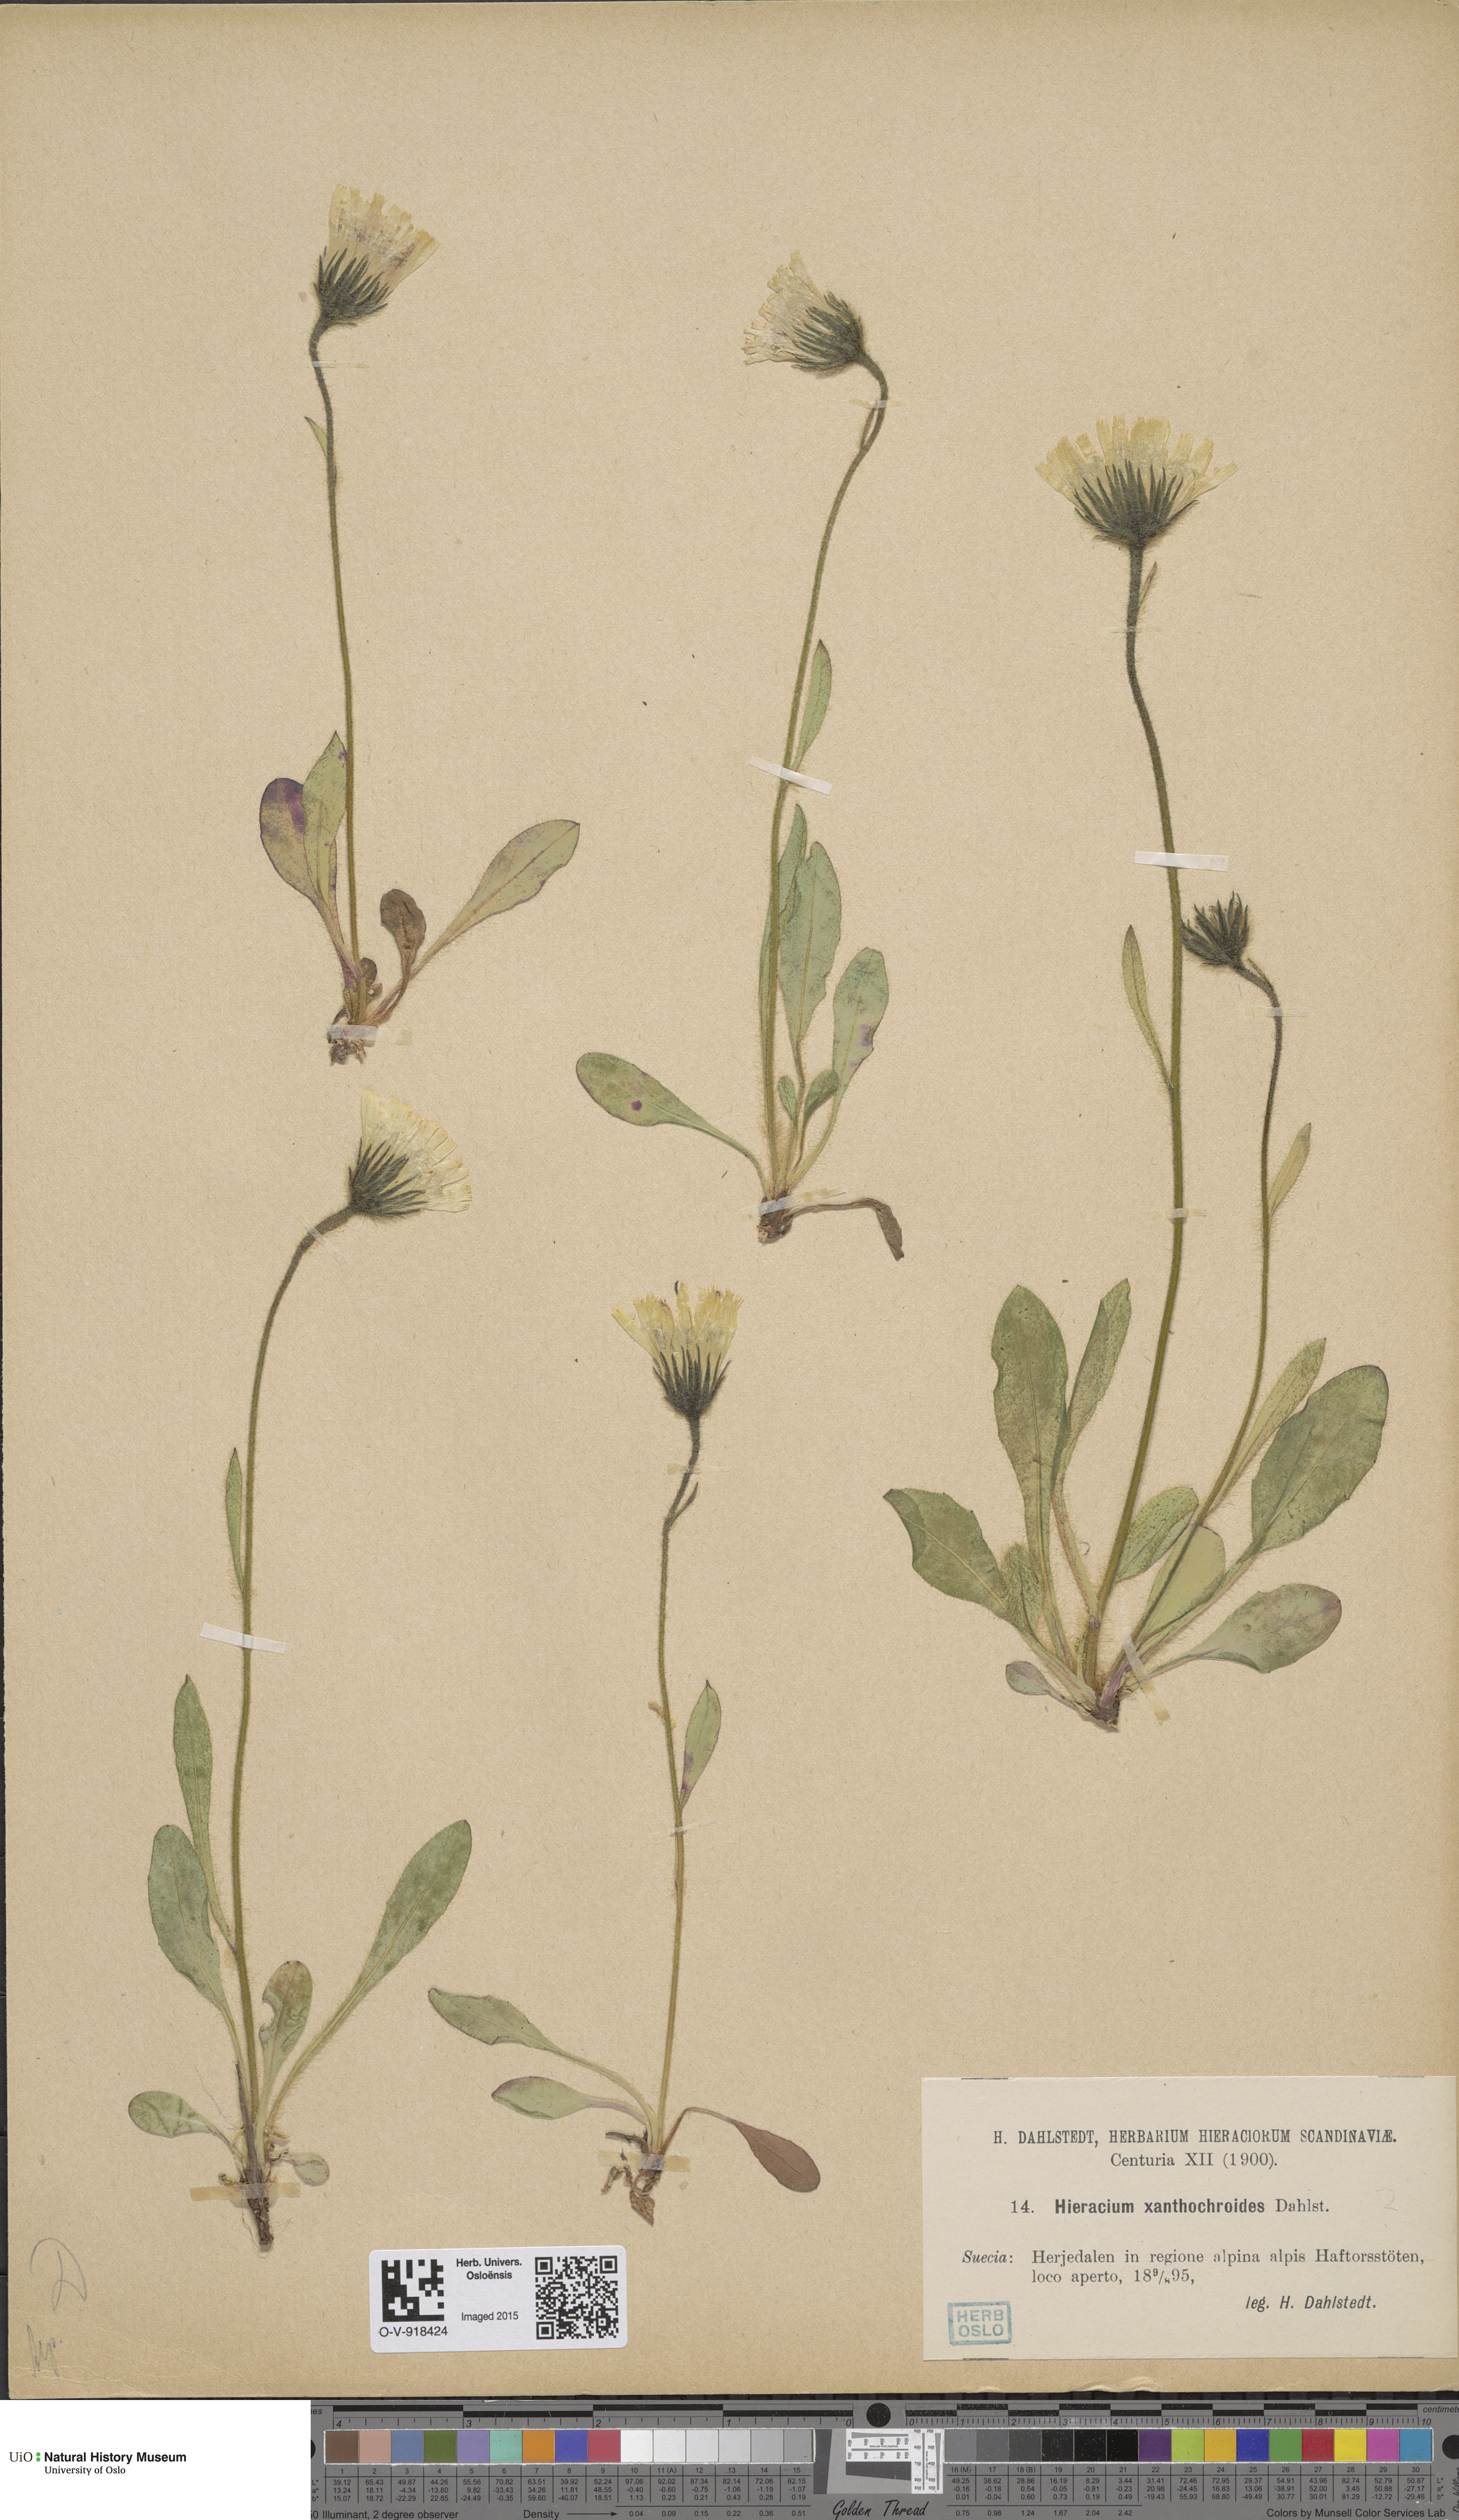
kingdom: Plantae
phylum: Tracheophyta
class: Magnoliopsida
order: Asterales
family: Asteraceae
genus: Hieracium
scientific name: Hieracium
